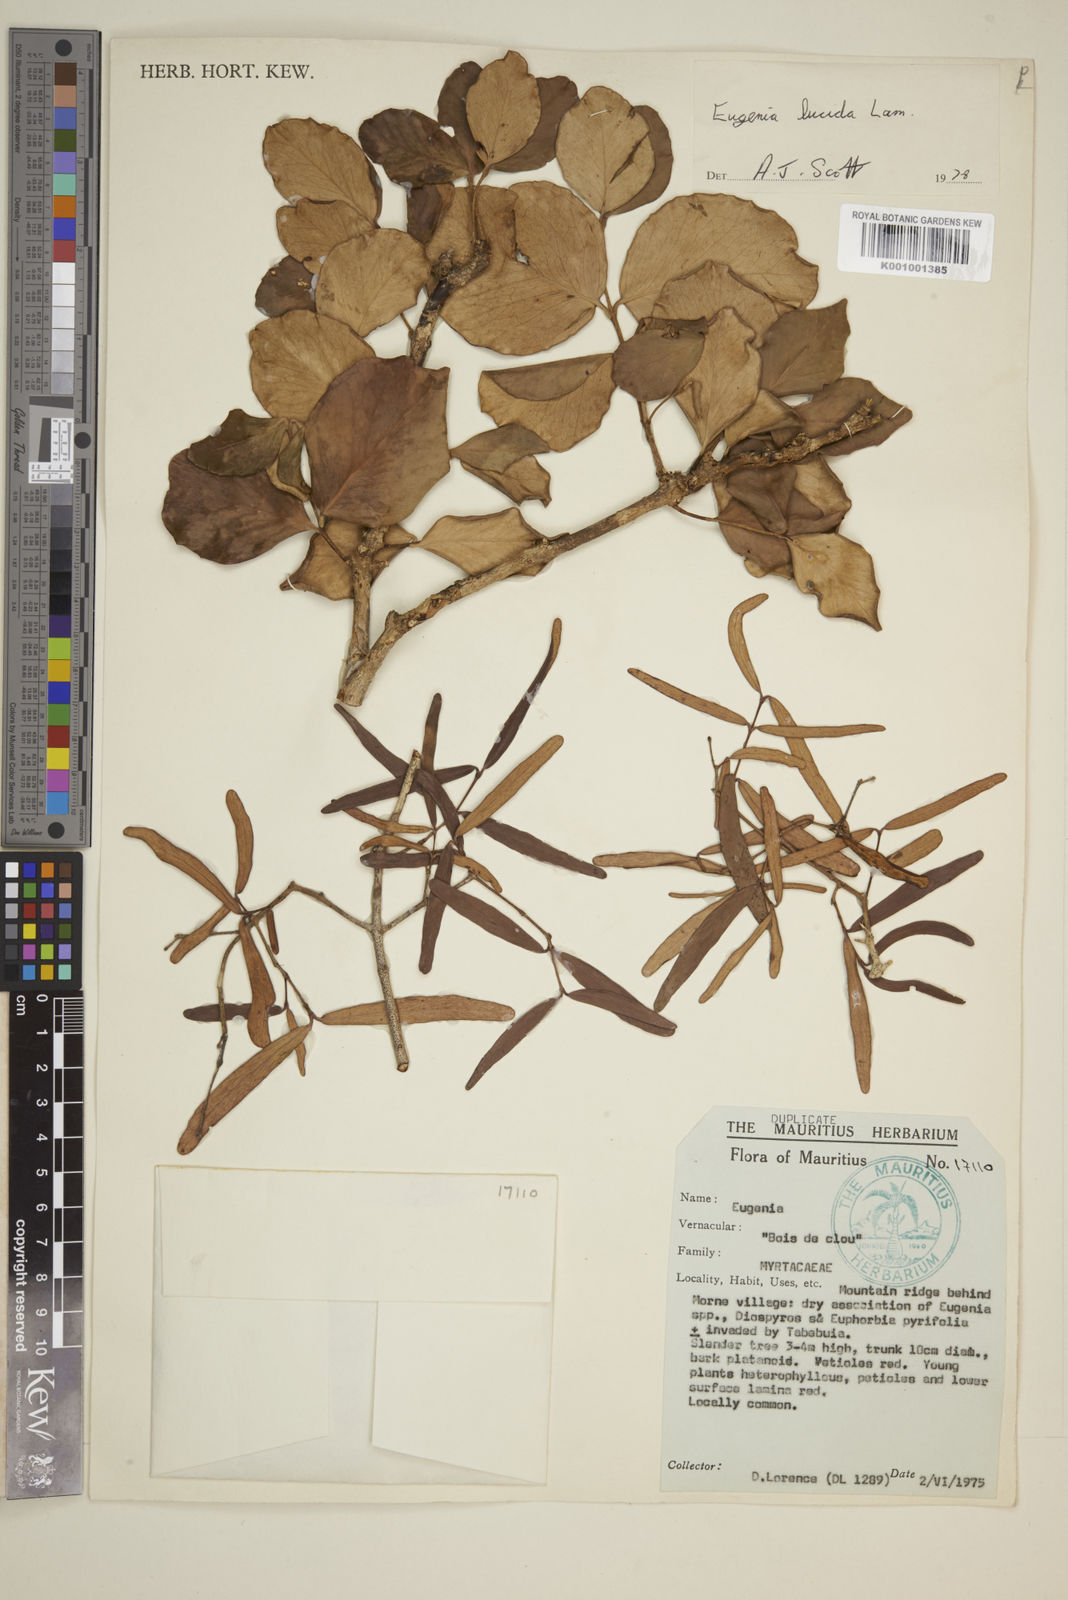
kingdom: Plantae
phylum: Tracheophyta
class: Magnoliopsida
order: Myrtales
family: Myrtaceae
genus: Eugenia
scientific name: Eugenia lucida
